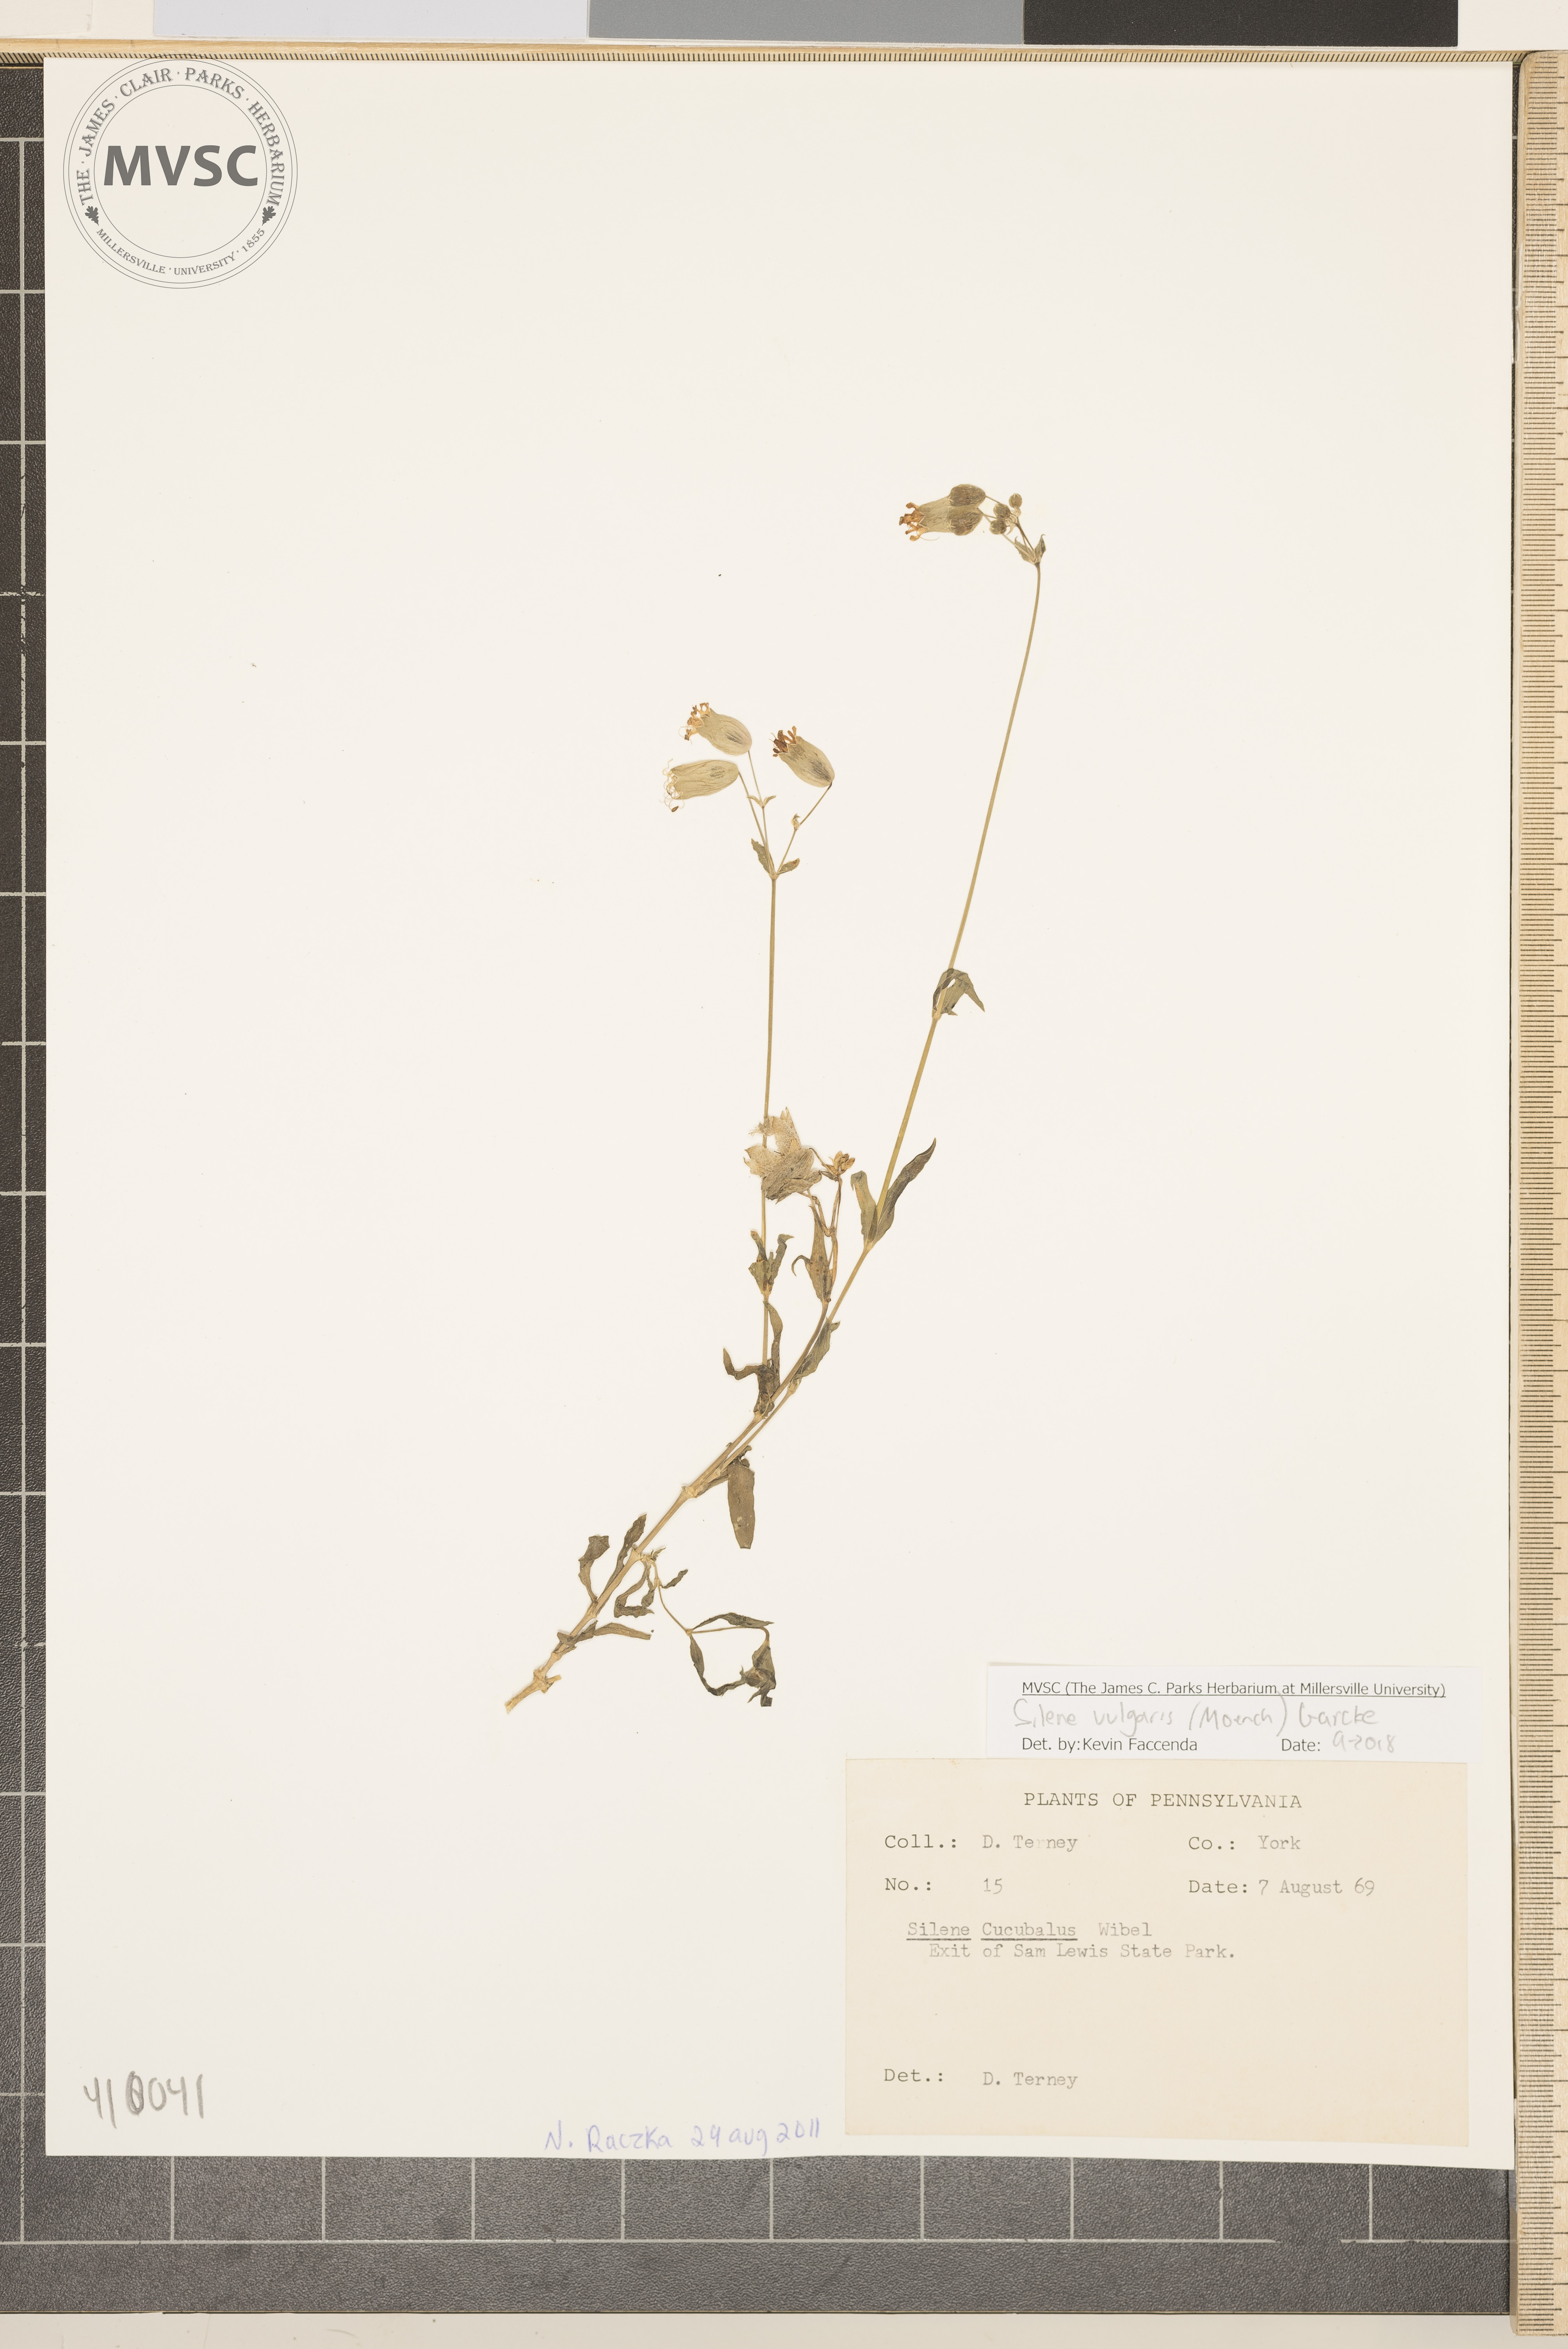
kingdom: Plantae
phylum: Tracheophyta
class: Magnoliopsida
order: Caryophyllales
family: Caryophyllaceae
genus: Silene
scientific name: Silene vulgaris
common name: Bladder campion
